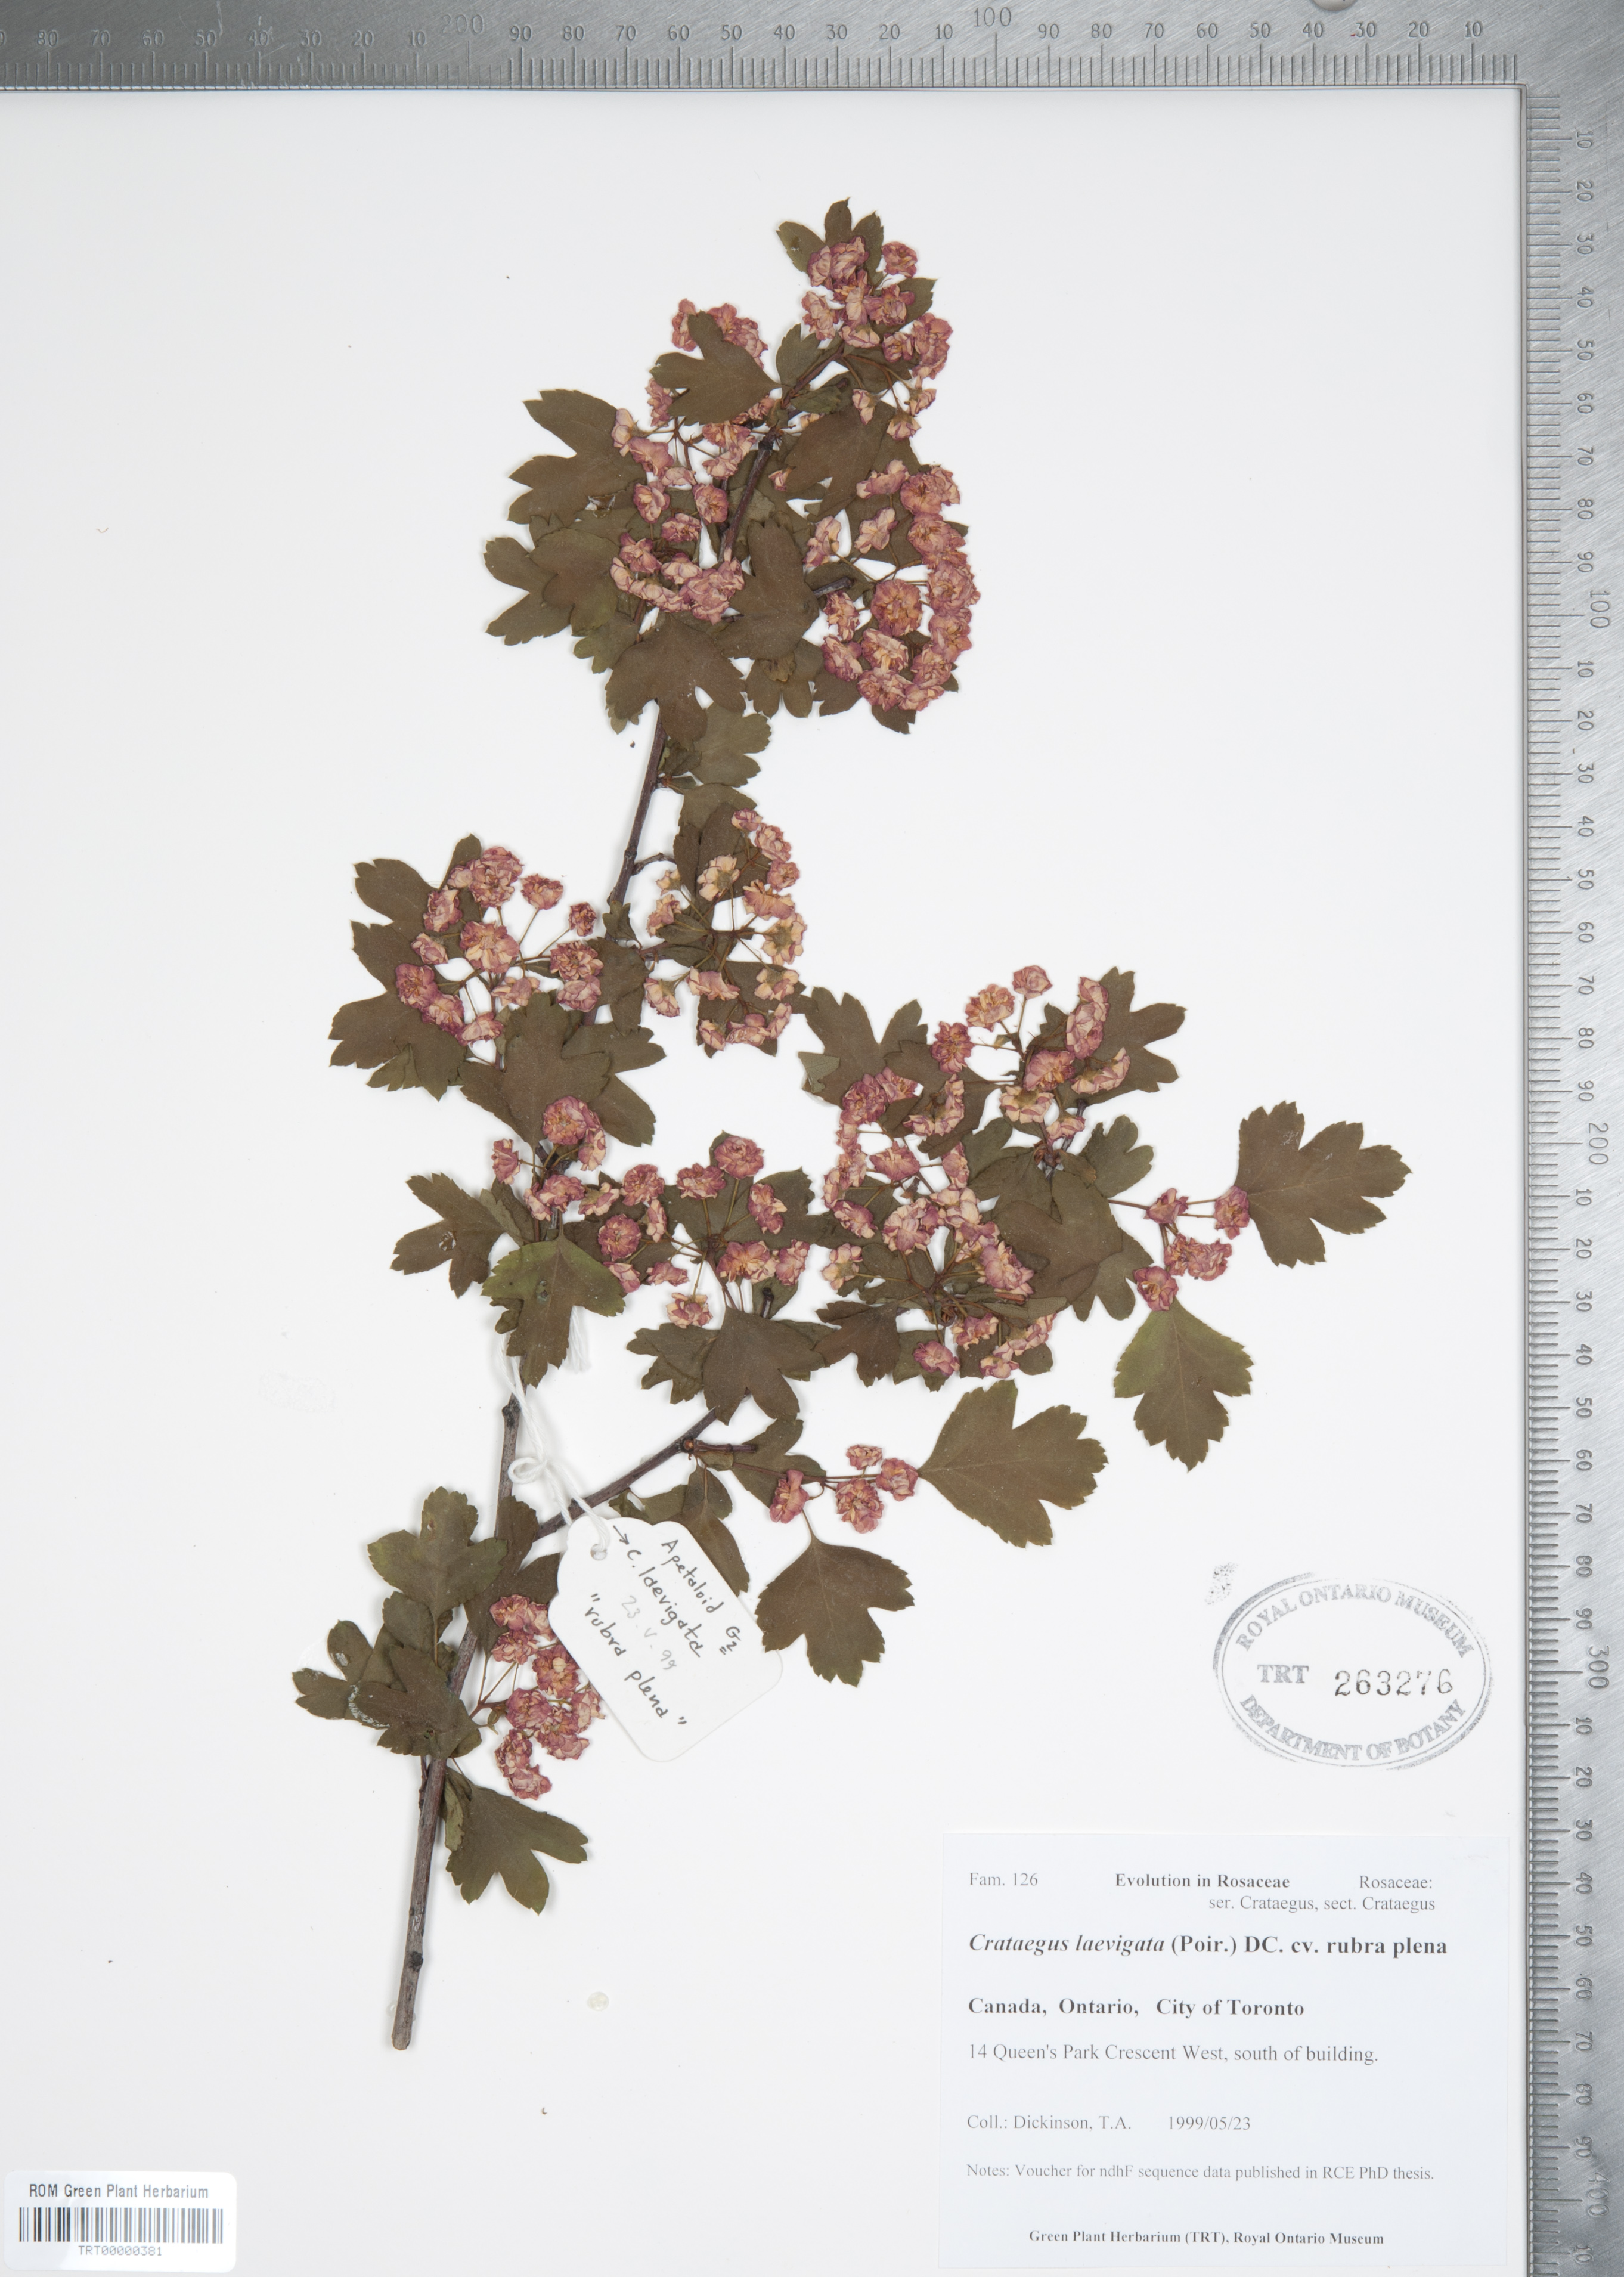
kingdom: Plantae
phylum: Tracheophyta
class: Magnoliopsida
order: Rosales
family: Rosaceae
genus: Crataegus
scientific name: Crataegus laevigata x monogyna
